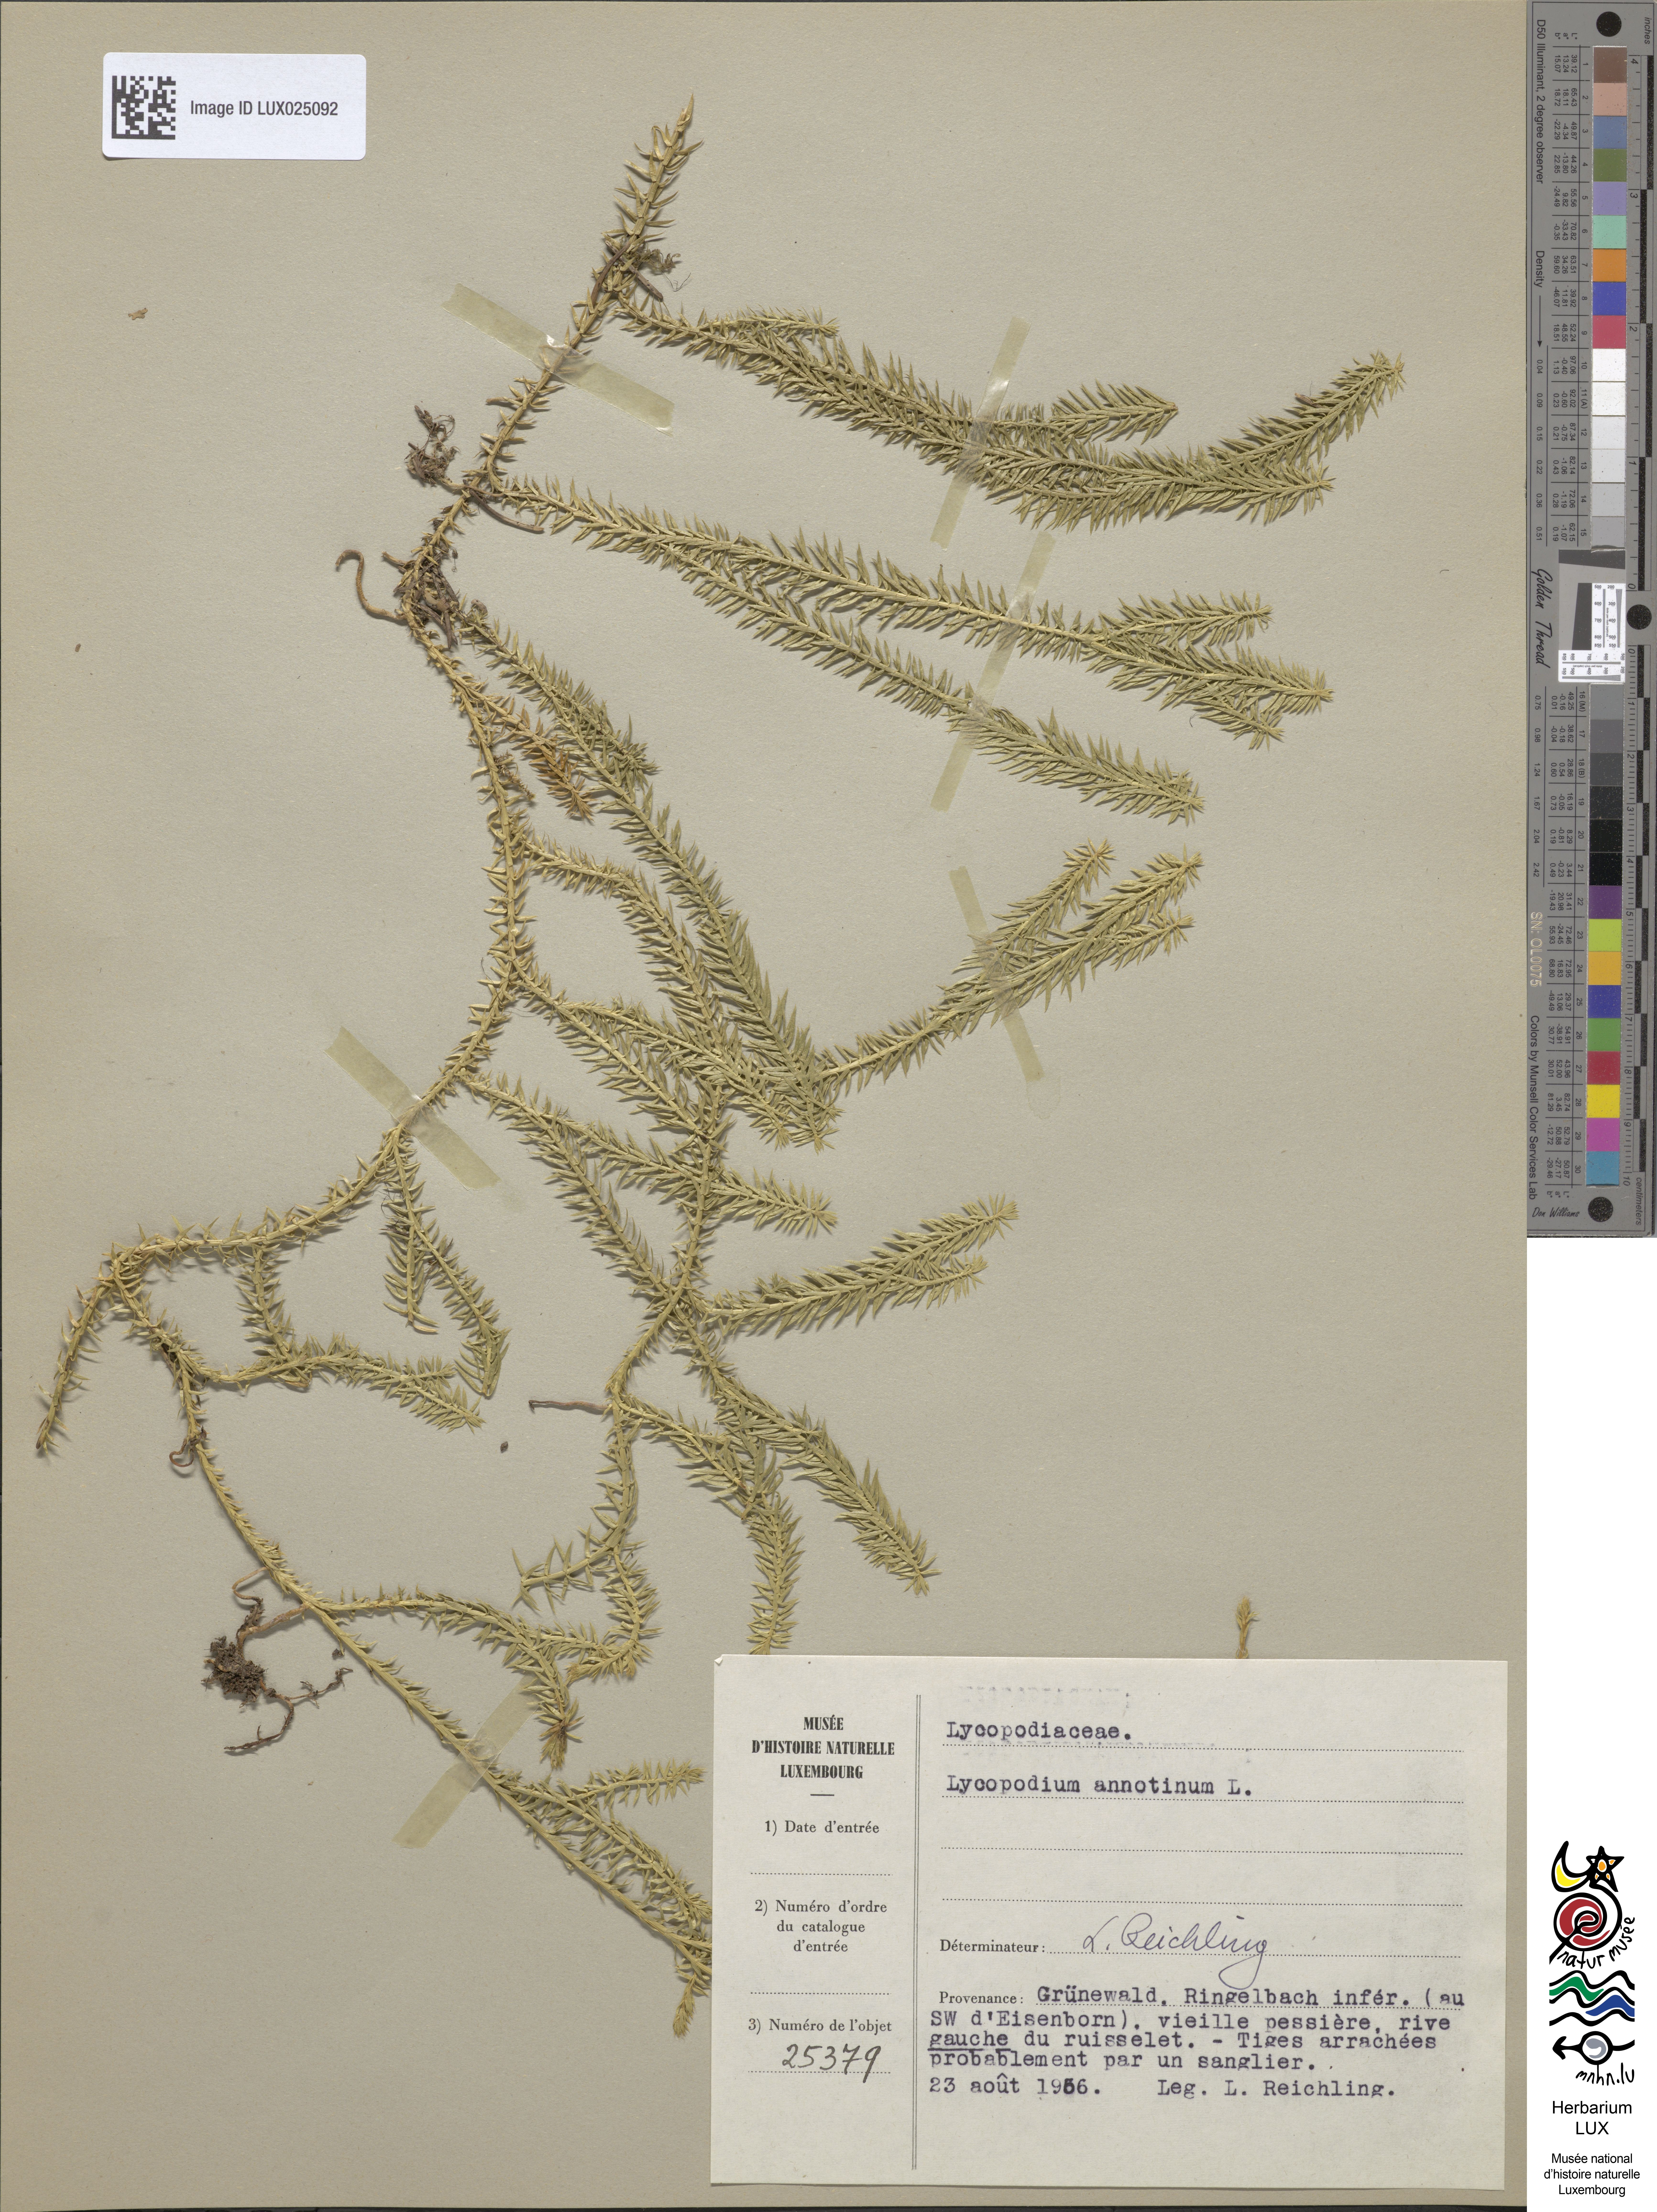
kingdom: Plantae
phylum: Tracheophyta
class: Lycopodiopsida
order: Lycopodiales
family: Lycopodiaceae
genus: Spinulum
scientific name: Spinulum annotinum
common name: Interrupted club-moss
